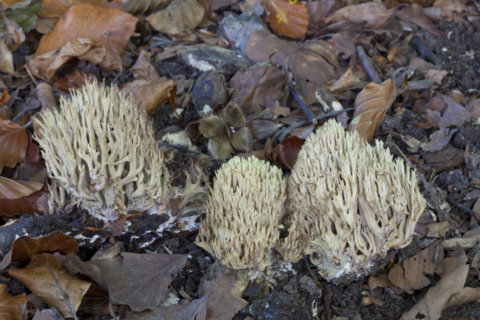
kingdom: Fungi
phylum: Basidiomycota
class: Agaricomycetes
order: Gomphales
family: Gomphaceae
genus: Ramaria
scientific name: Ramaria stricta
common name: rank koralsvamp
